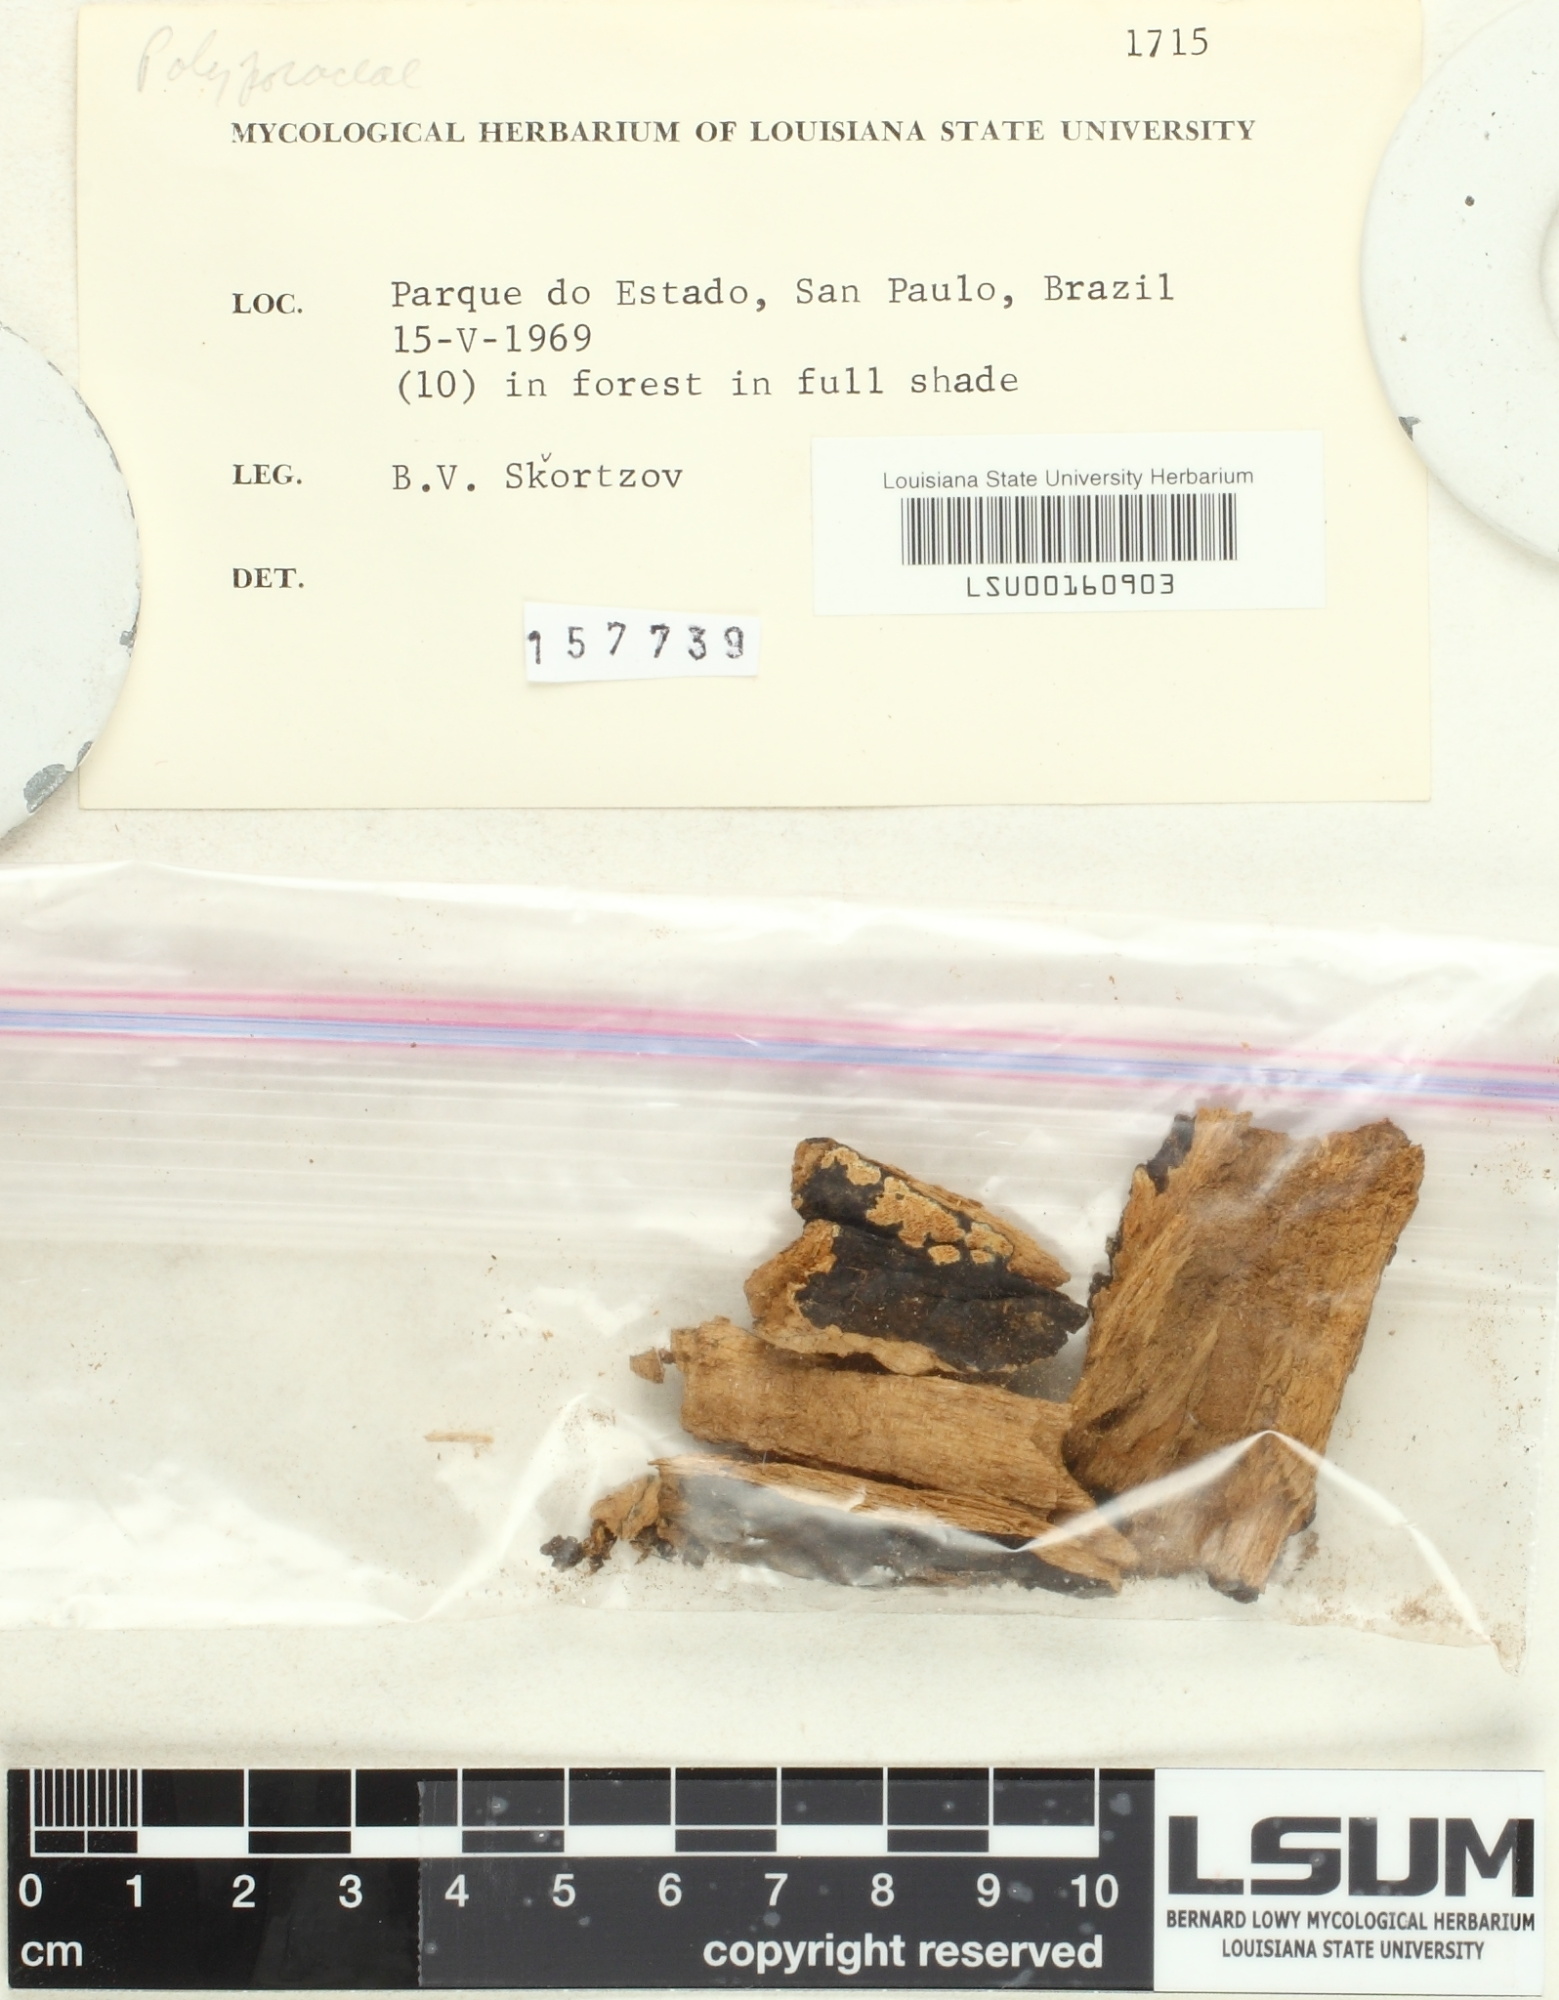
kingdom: Fungi
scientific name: Fungi
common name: Fungi
